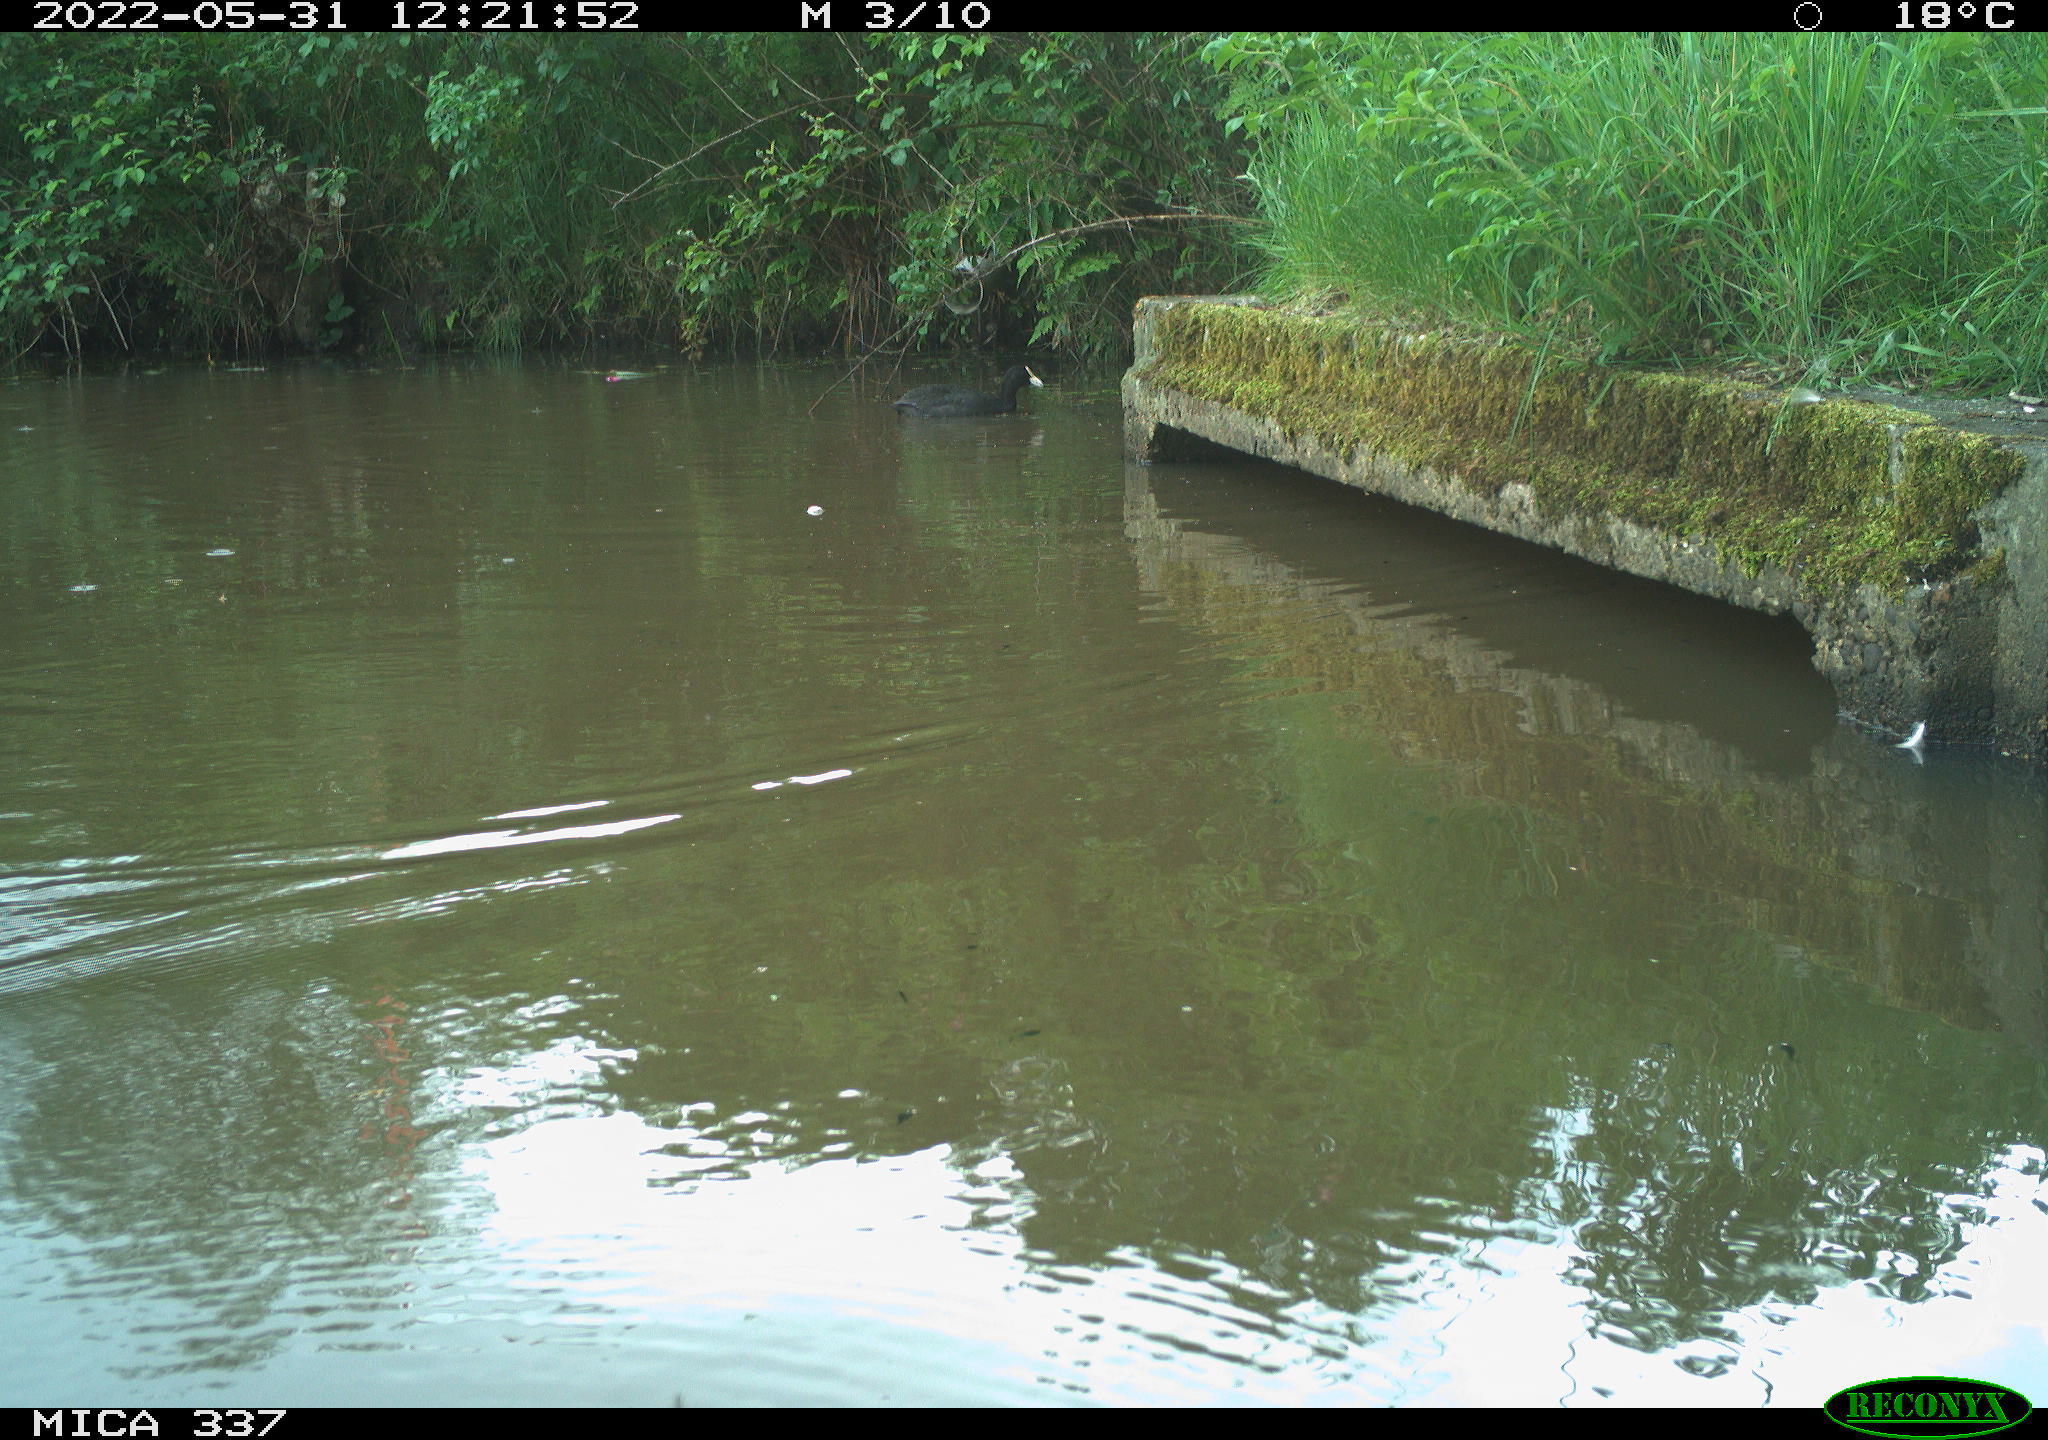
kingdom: Animalia
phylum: Chordata
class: Aves
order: Gruiformes
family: Rallidae
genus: Fulica
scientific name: Fulica atra
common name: Eurasian coot
